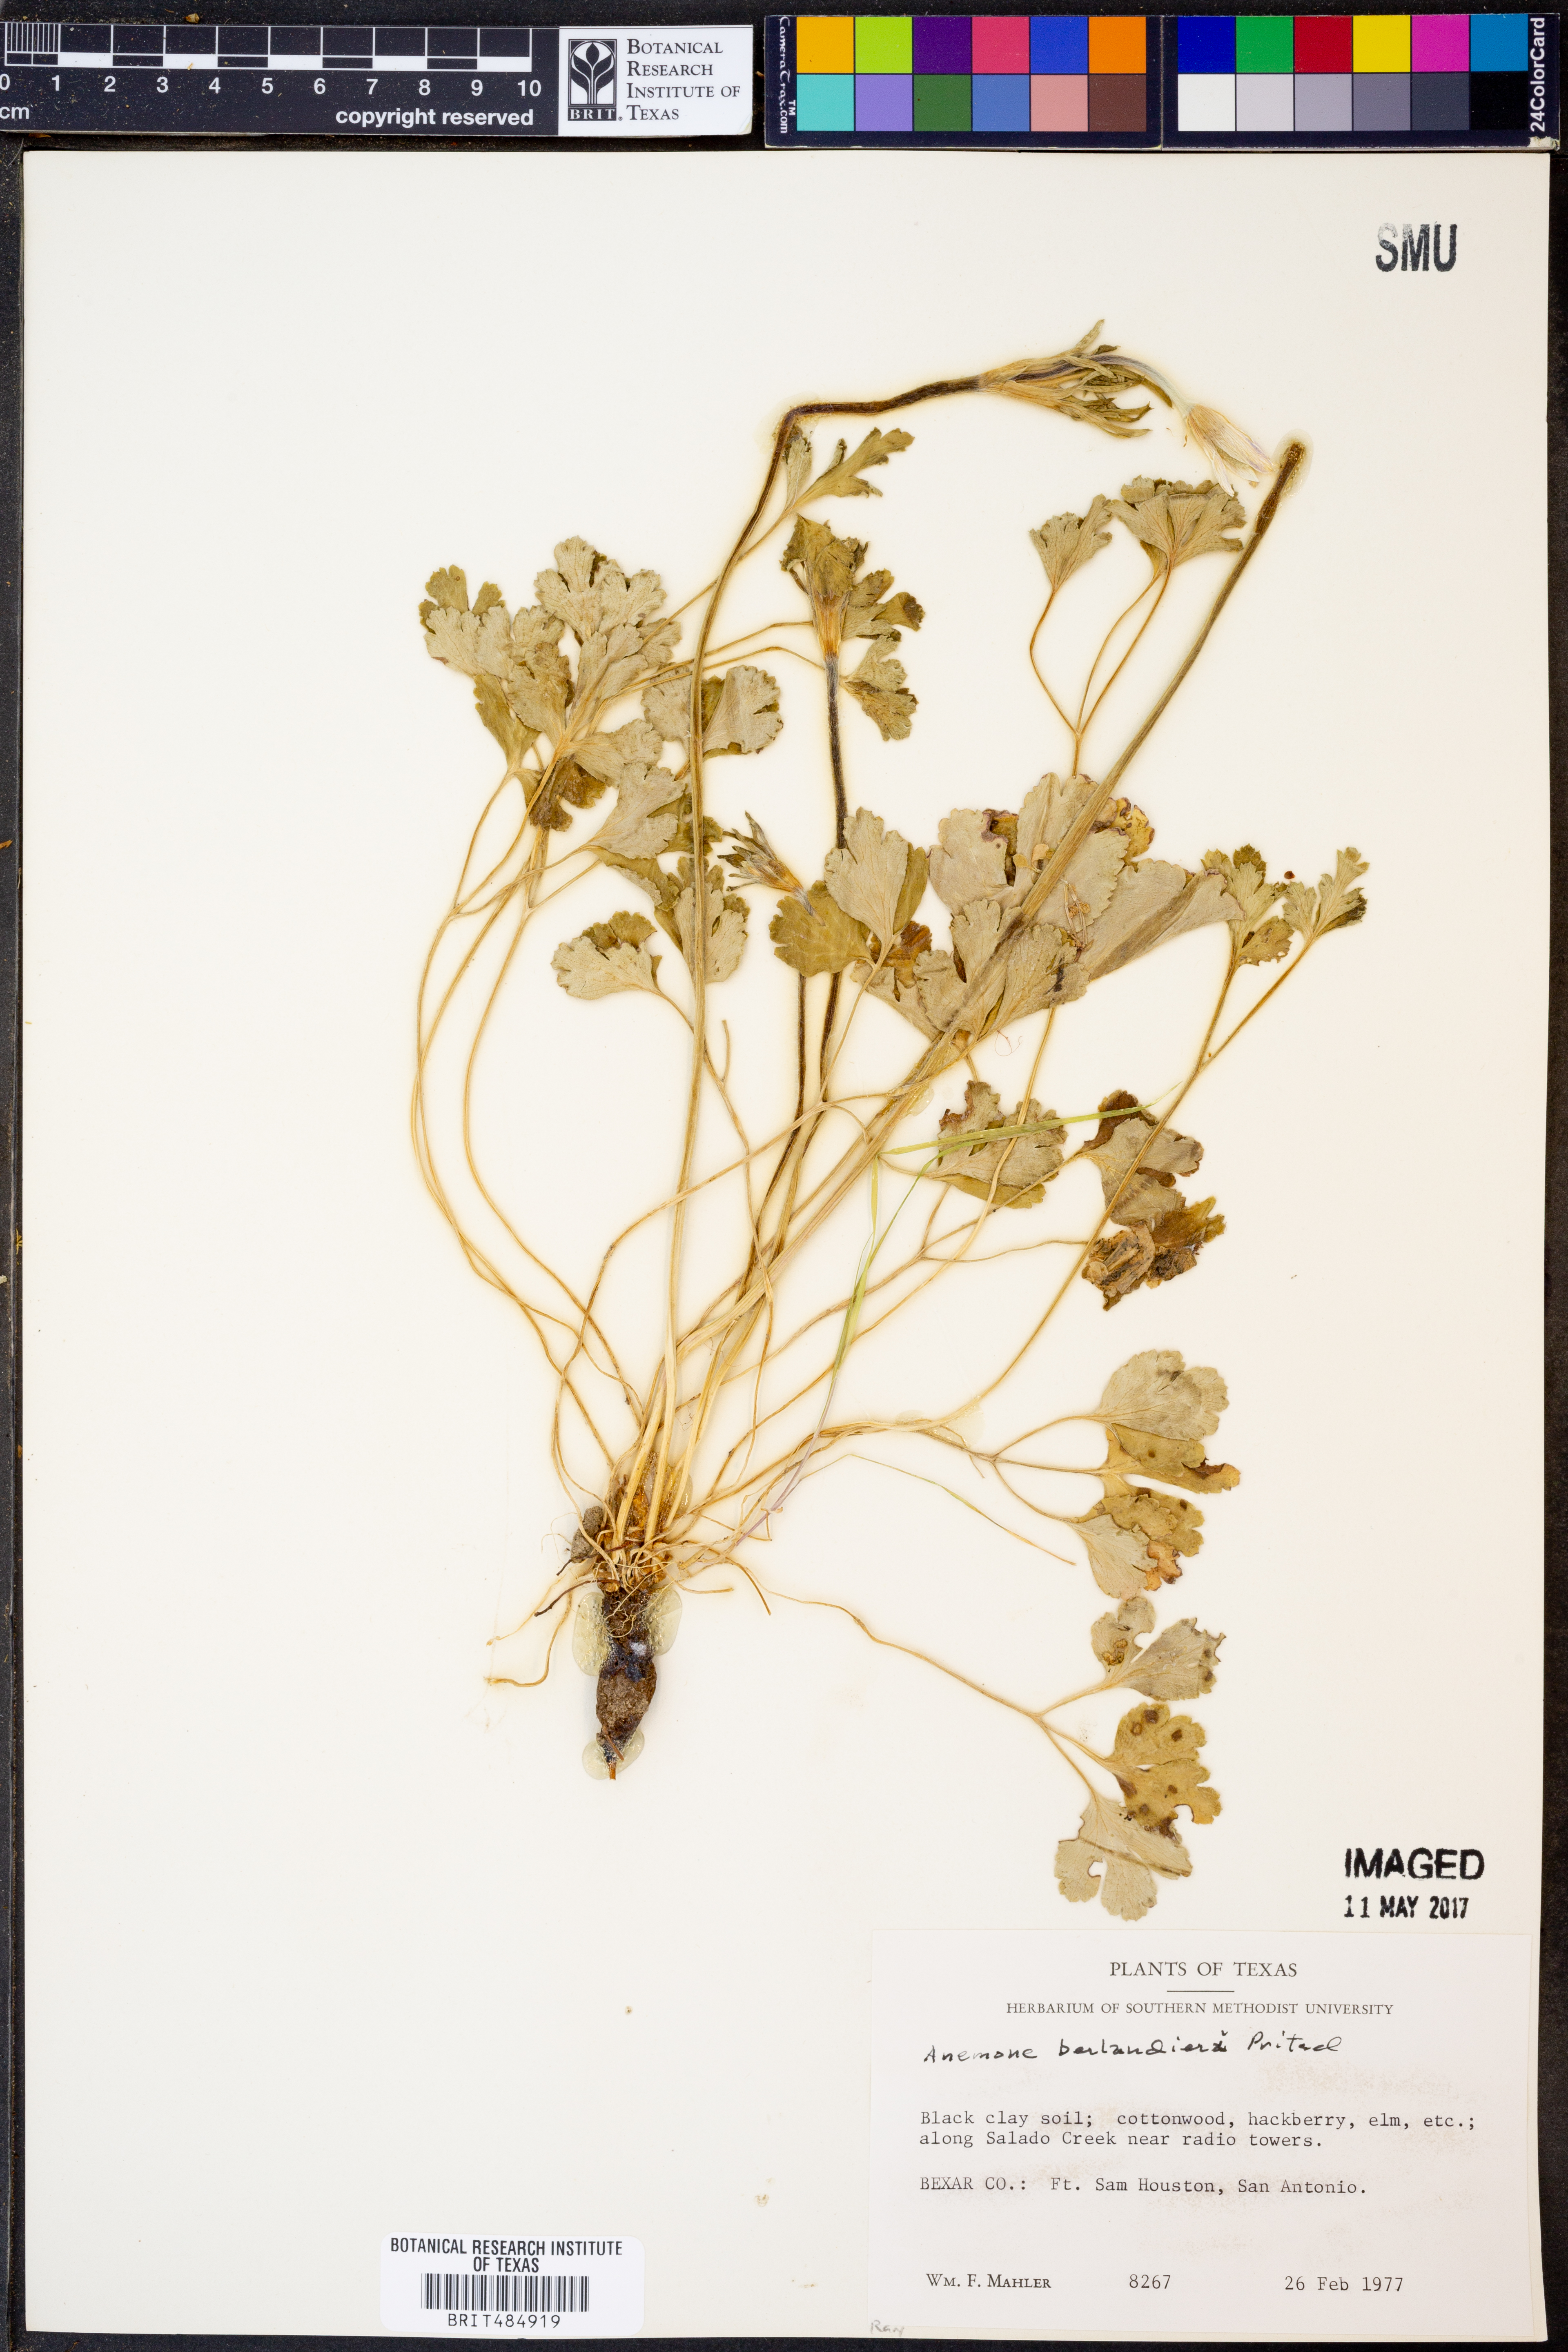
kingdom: Plantae
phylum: Tracheophyta
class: Magnoliopsida
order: Ranunculales
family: Ranunculaceae
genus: Anemone
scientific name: Anemone berlandieri
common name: Ten-petal anemone
